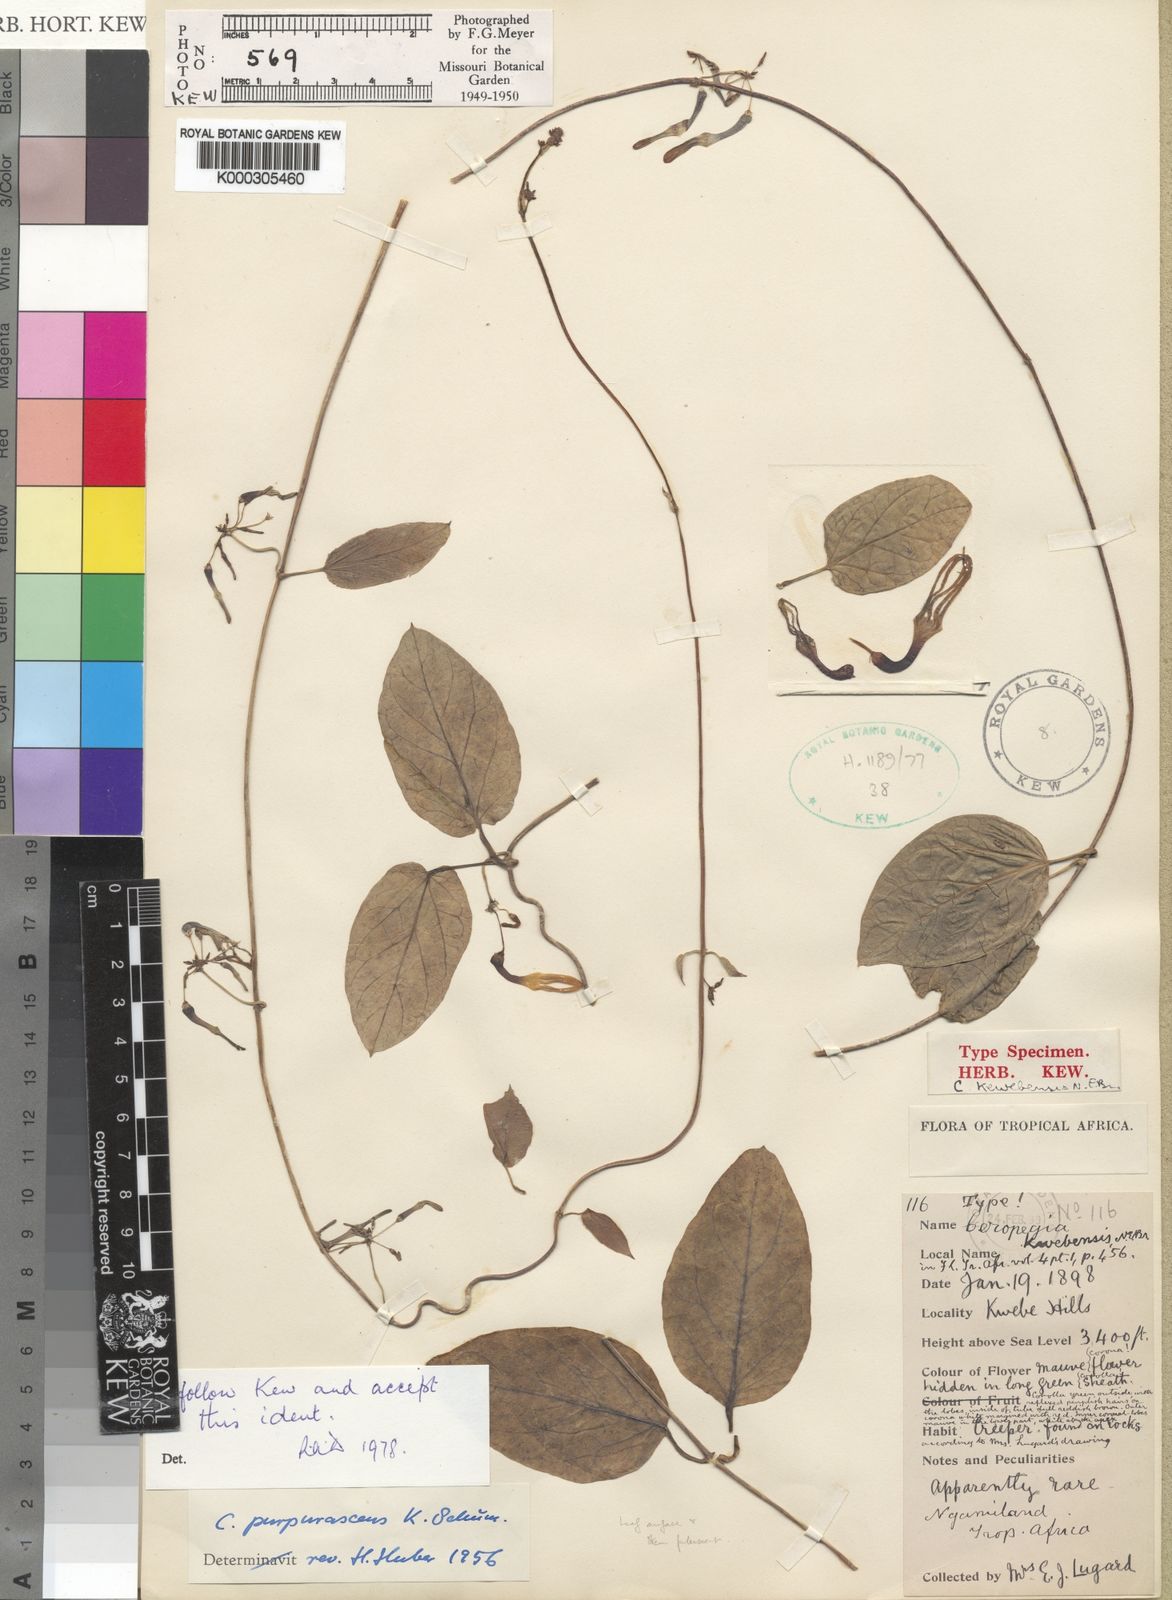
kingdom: Plantae
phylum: Tracheophyta
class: Magnoliopsida
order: Gentianales
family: Apocynaceae
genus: Ceropegia
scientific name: Ceropegia purpurascens
